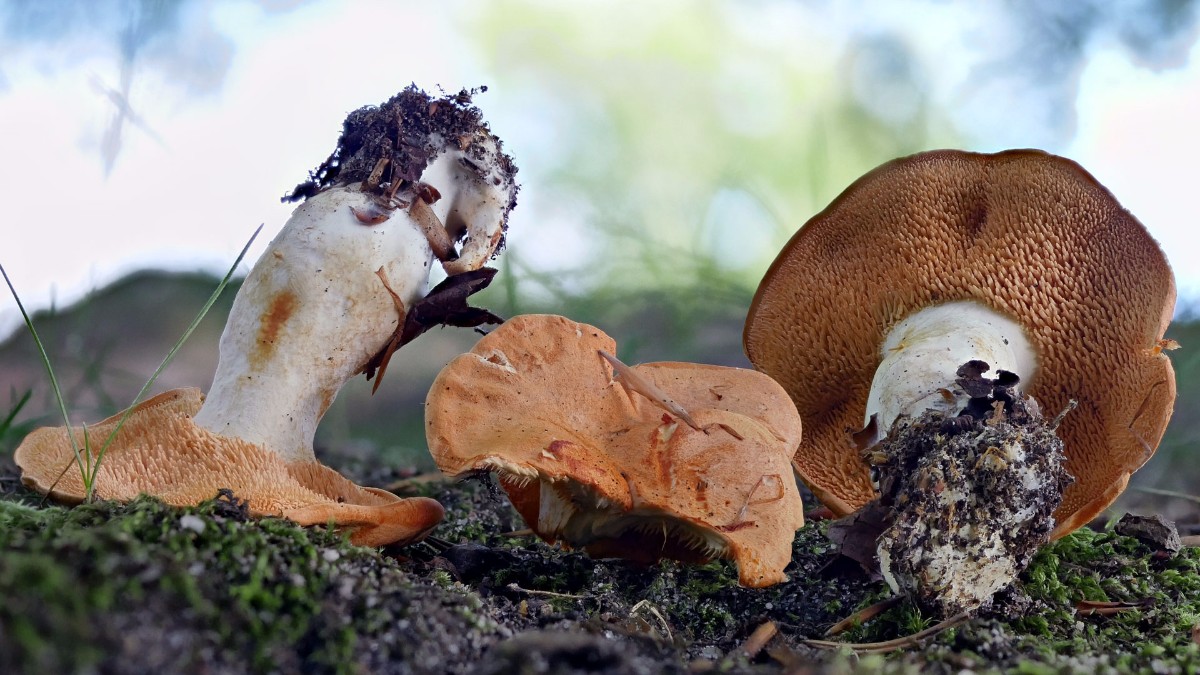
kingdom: Fungi
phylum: Basidiomycota
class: Agaricomycetes
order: Cantharellales
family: Hydnaceae
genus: Hydnum
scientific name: Hydnum
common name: pigsvamp
